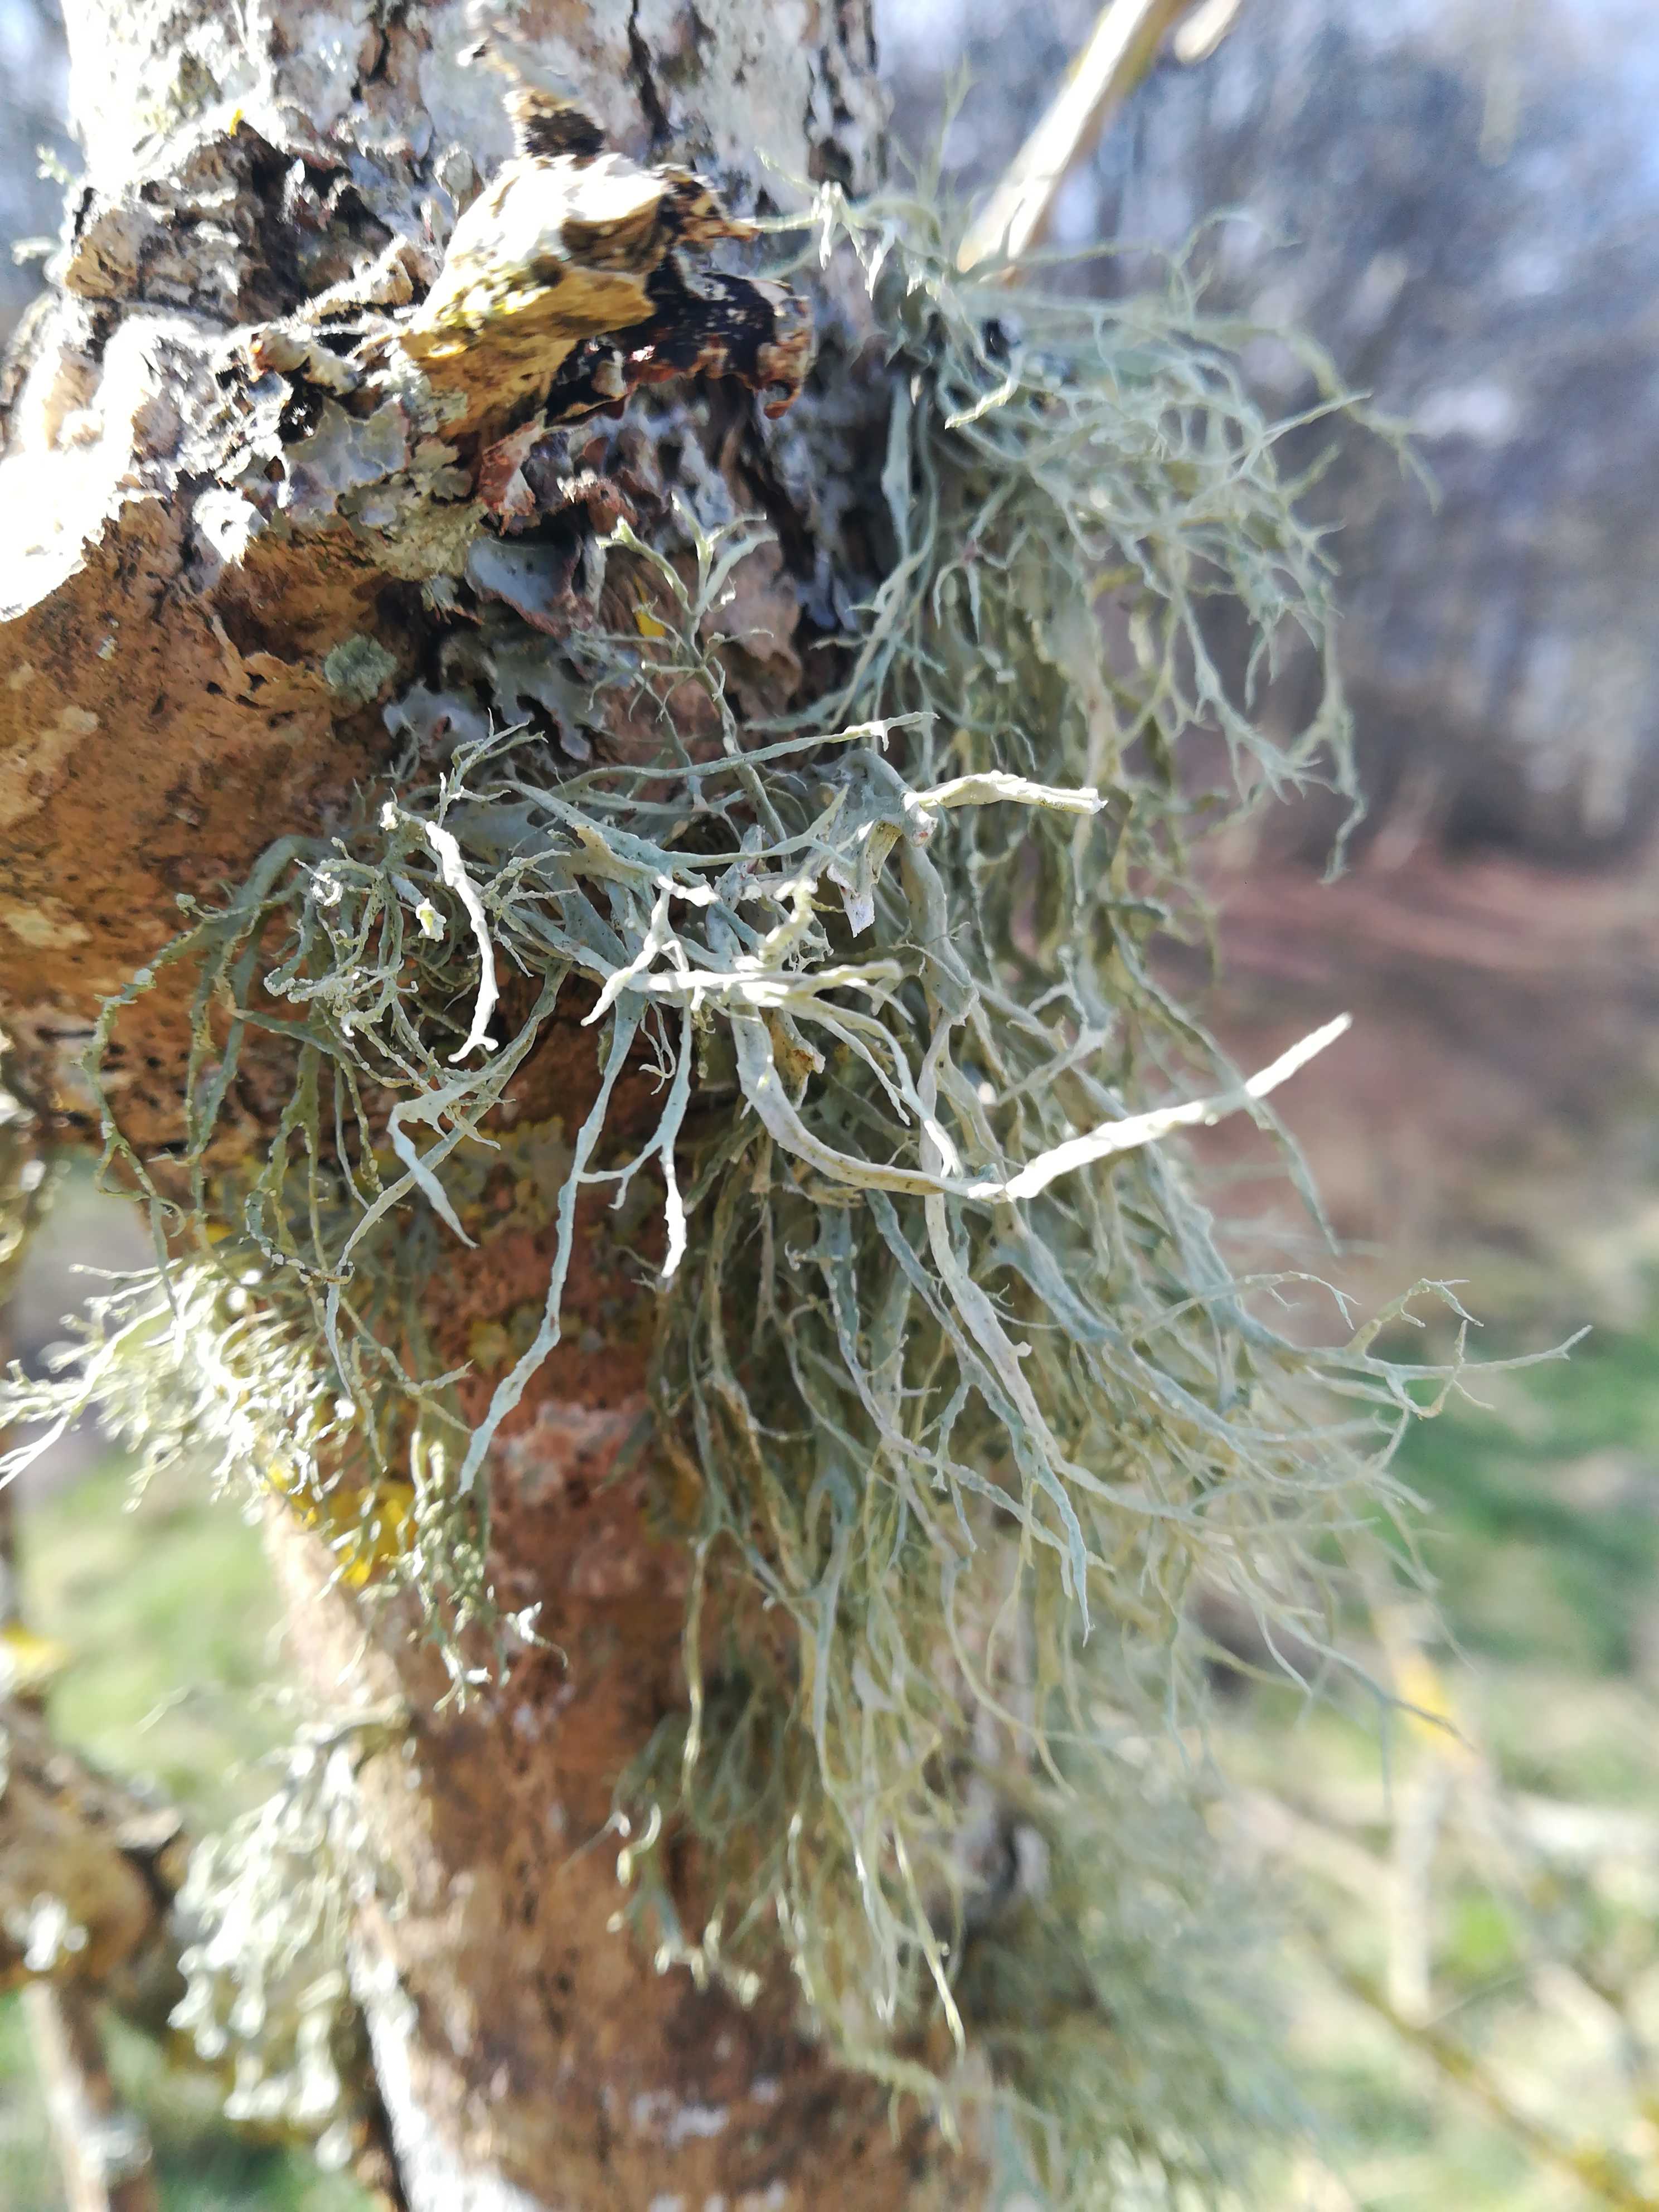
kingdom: Fungi
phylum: Ascomycota
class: Lecanoromycetes
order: Lecanorales
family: Ramalinaceae
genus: Ramalina
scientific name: Ramalina farinacea
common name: melet grenlav
